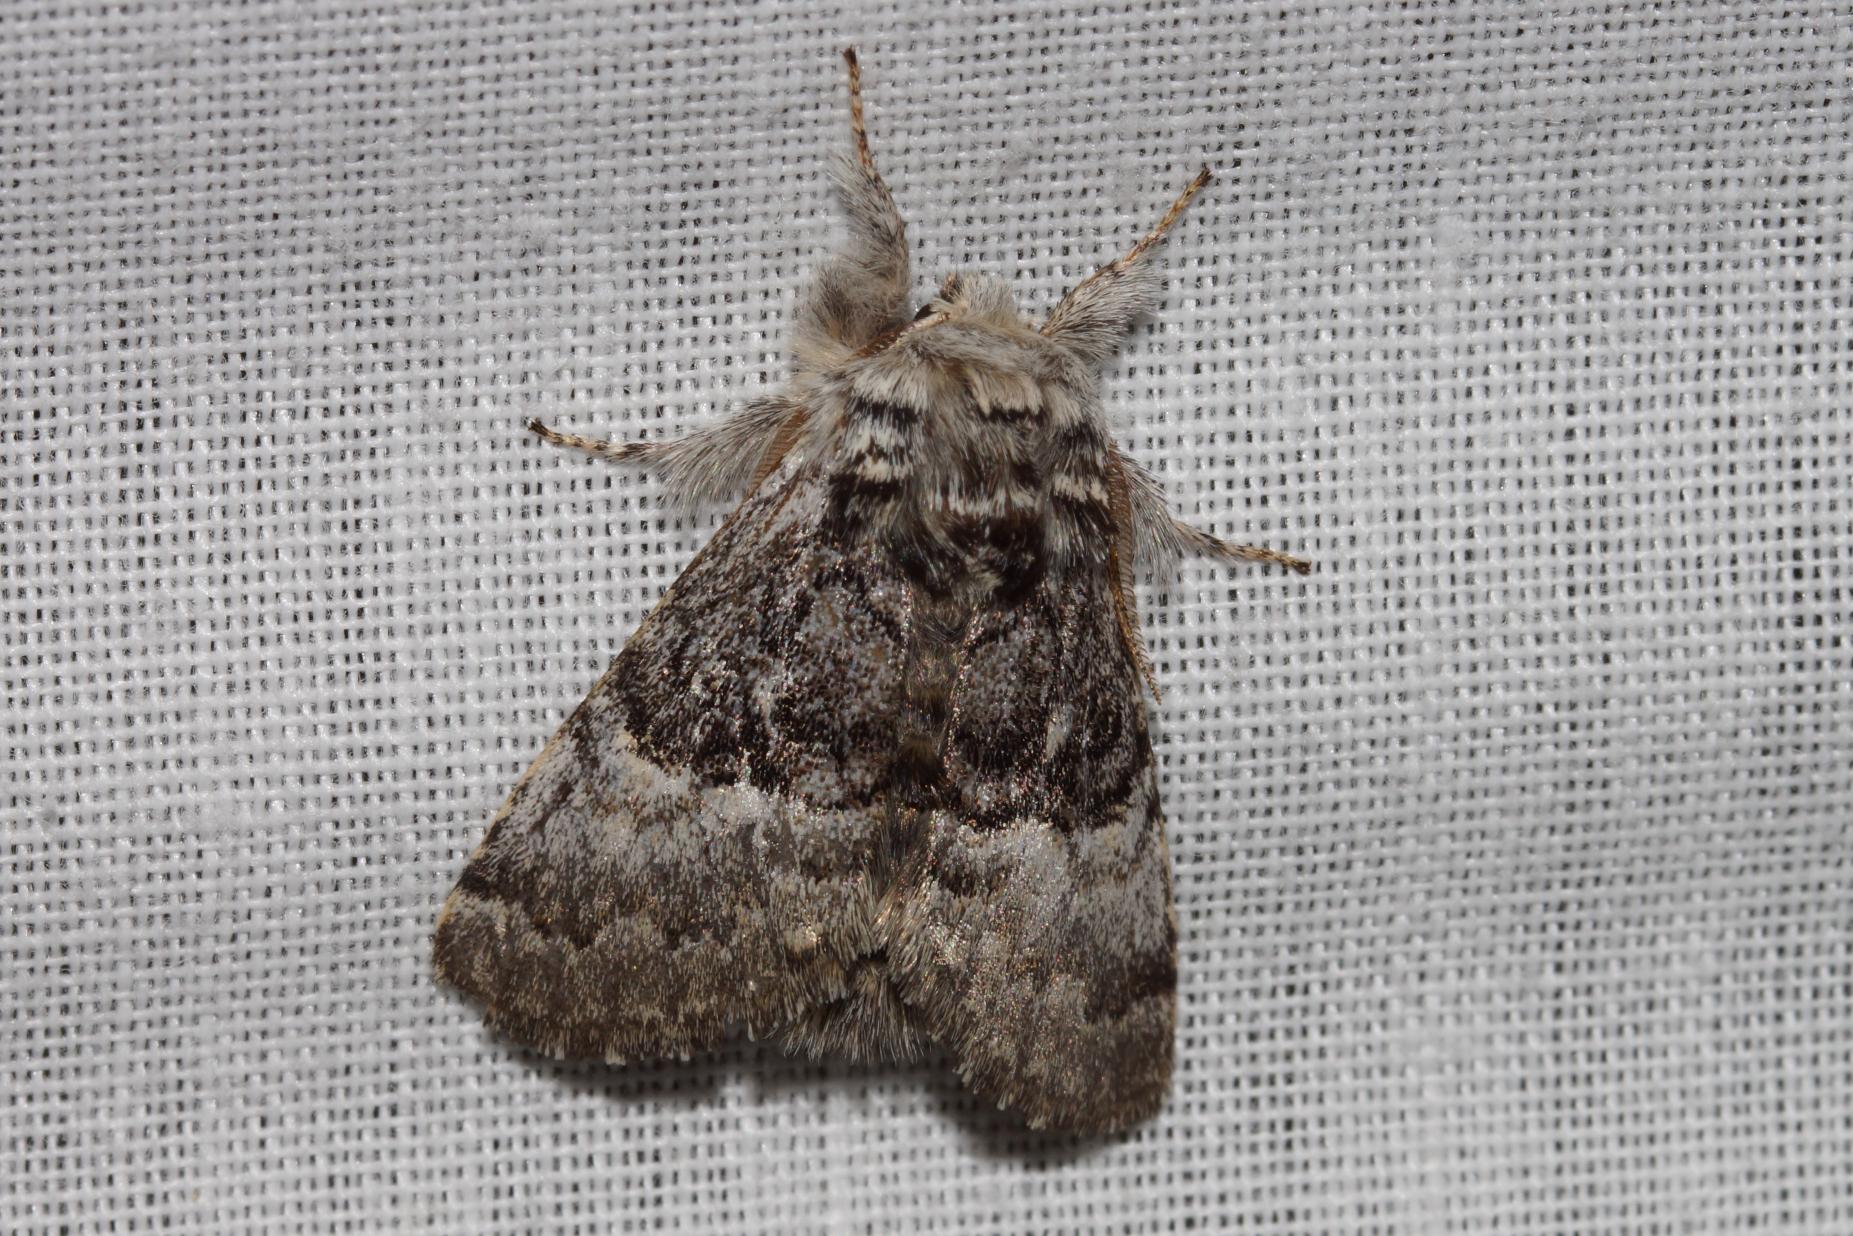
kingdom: Animalia
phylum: Arthropoda
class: Insecta
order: Lepidoptera
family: Noctuidae
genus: Colocasia
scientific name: Colocasia coryli
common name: Penselugle
